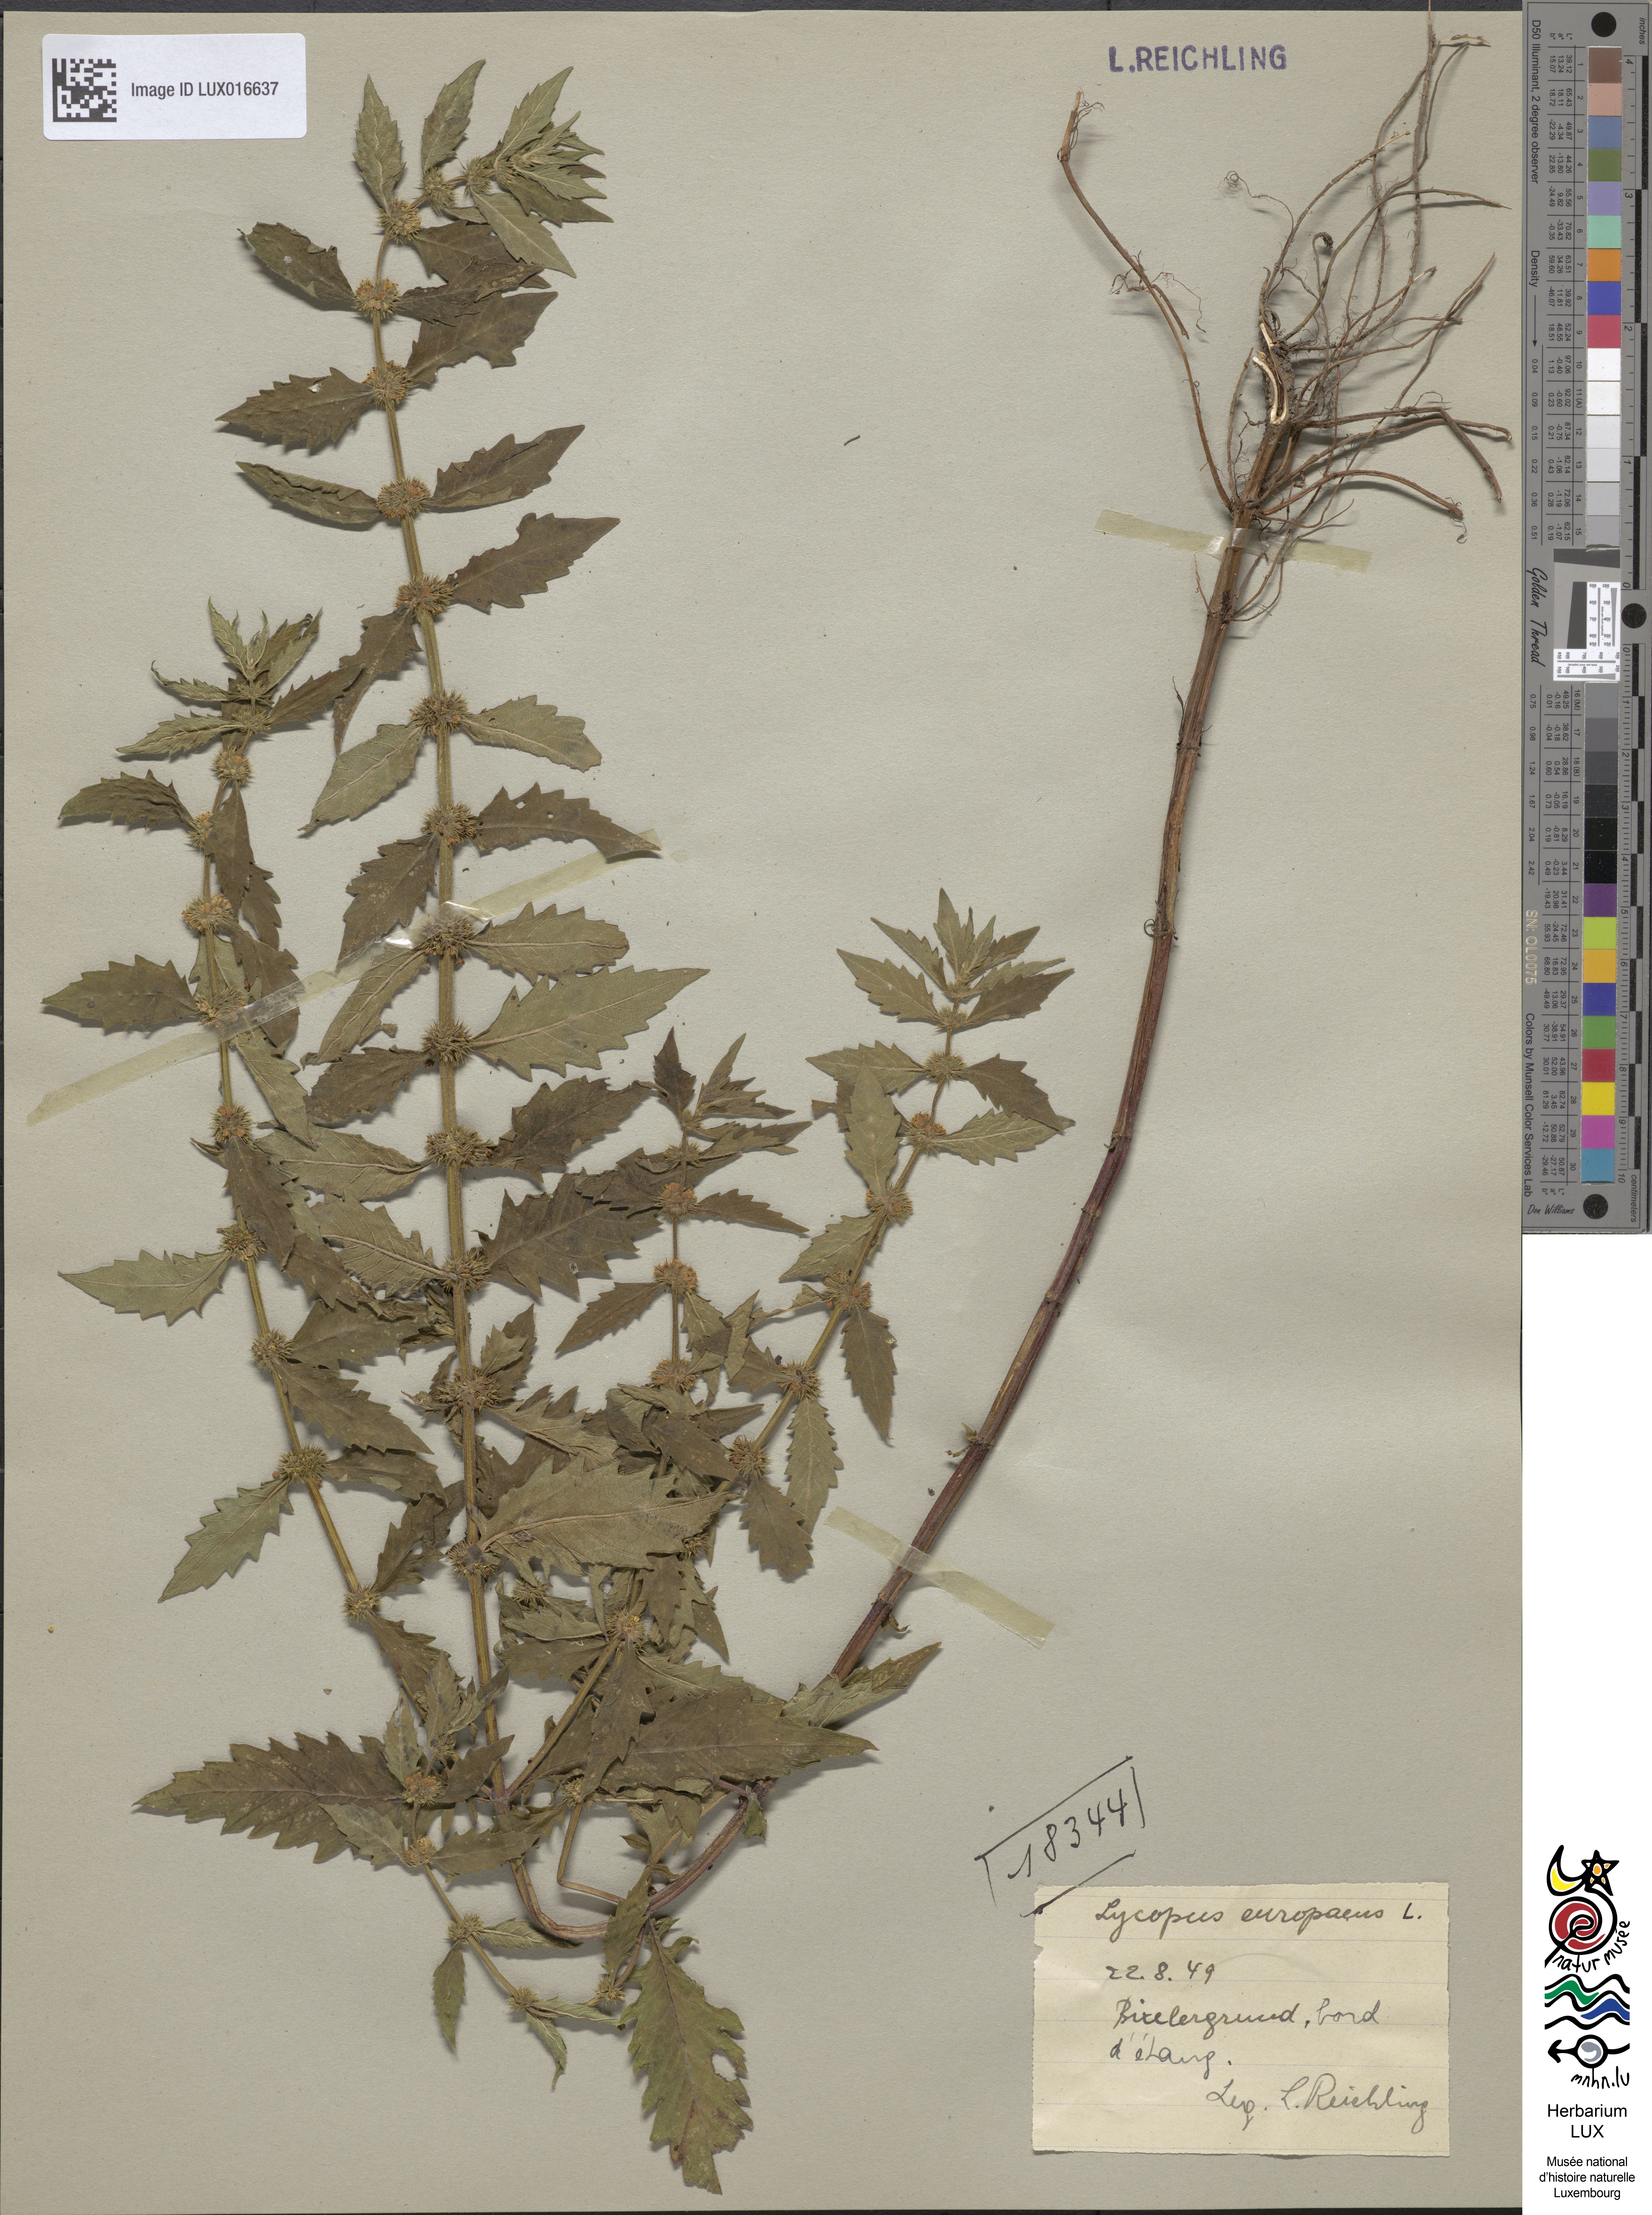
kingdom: Plantae
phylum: Tracheophyta
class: Magnoliopsida
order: Lamiales
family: Lamiaceae
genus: Lycopus
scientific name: Lycopus europaeus
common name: European bugleweed
